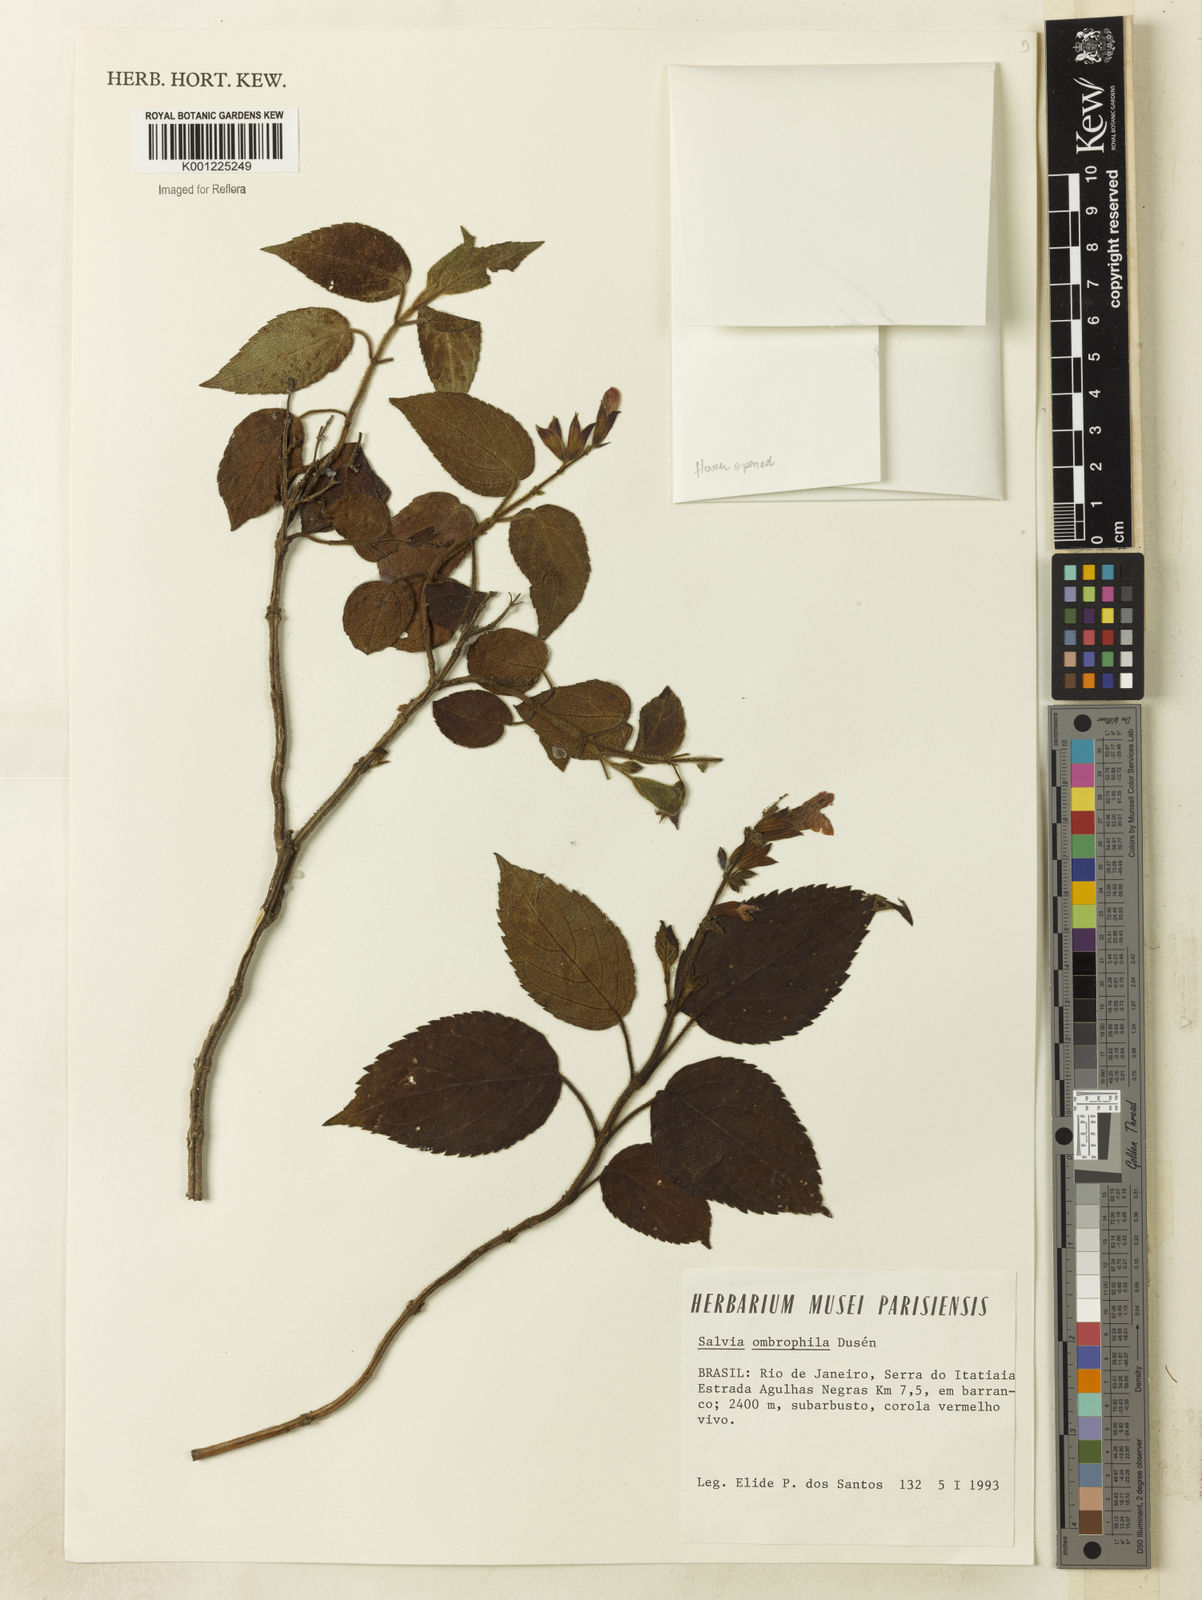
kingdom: Plantae
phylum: Tracheophyta
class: Magnoliopsida
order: Lamiales
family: Lamiaceae
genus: Salvia
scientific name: Salvia
